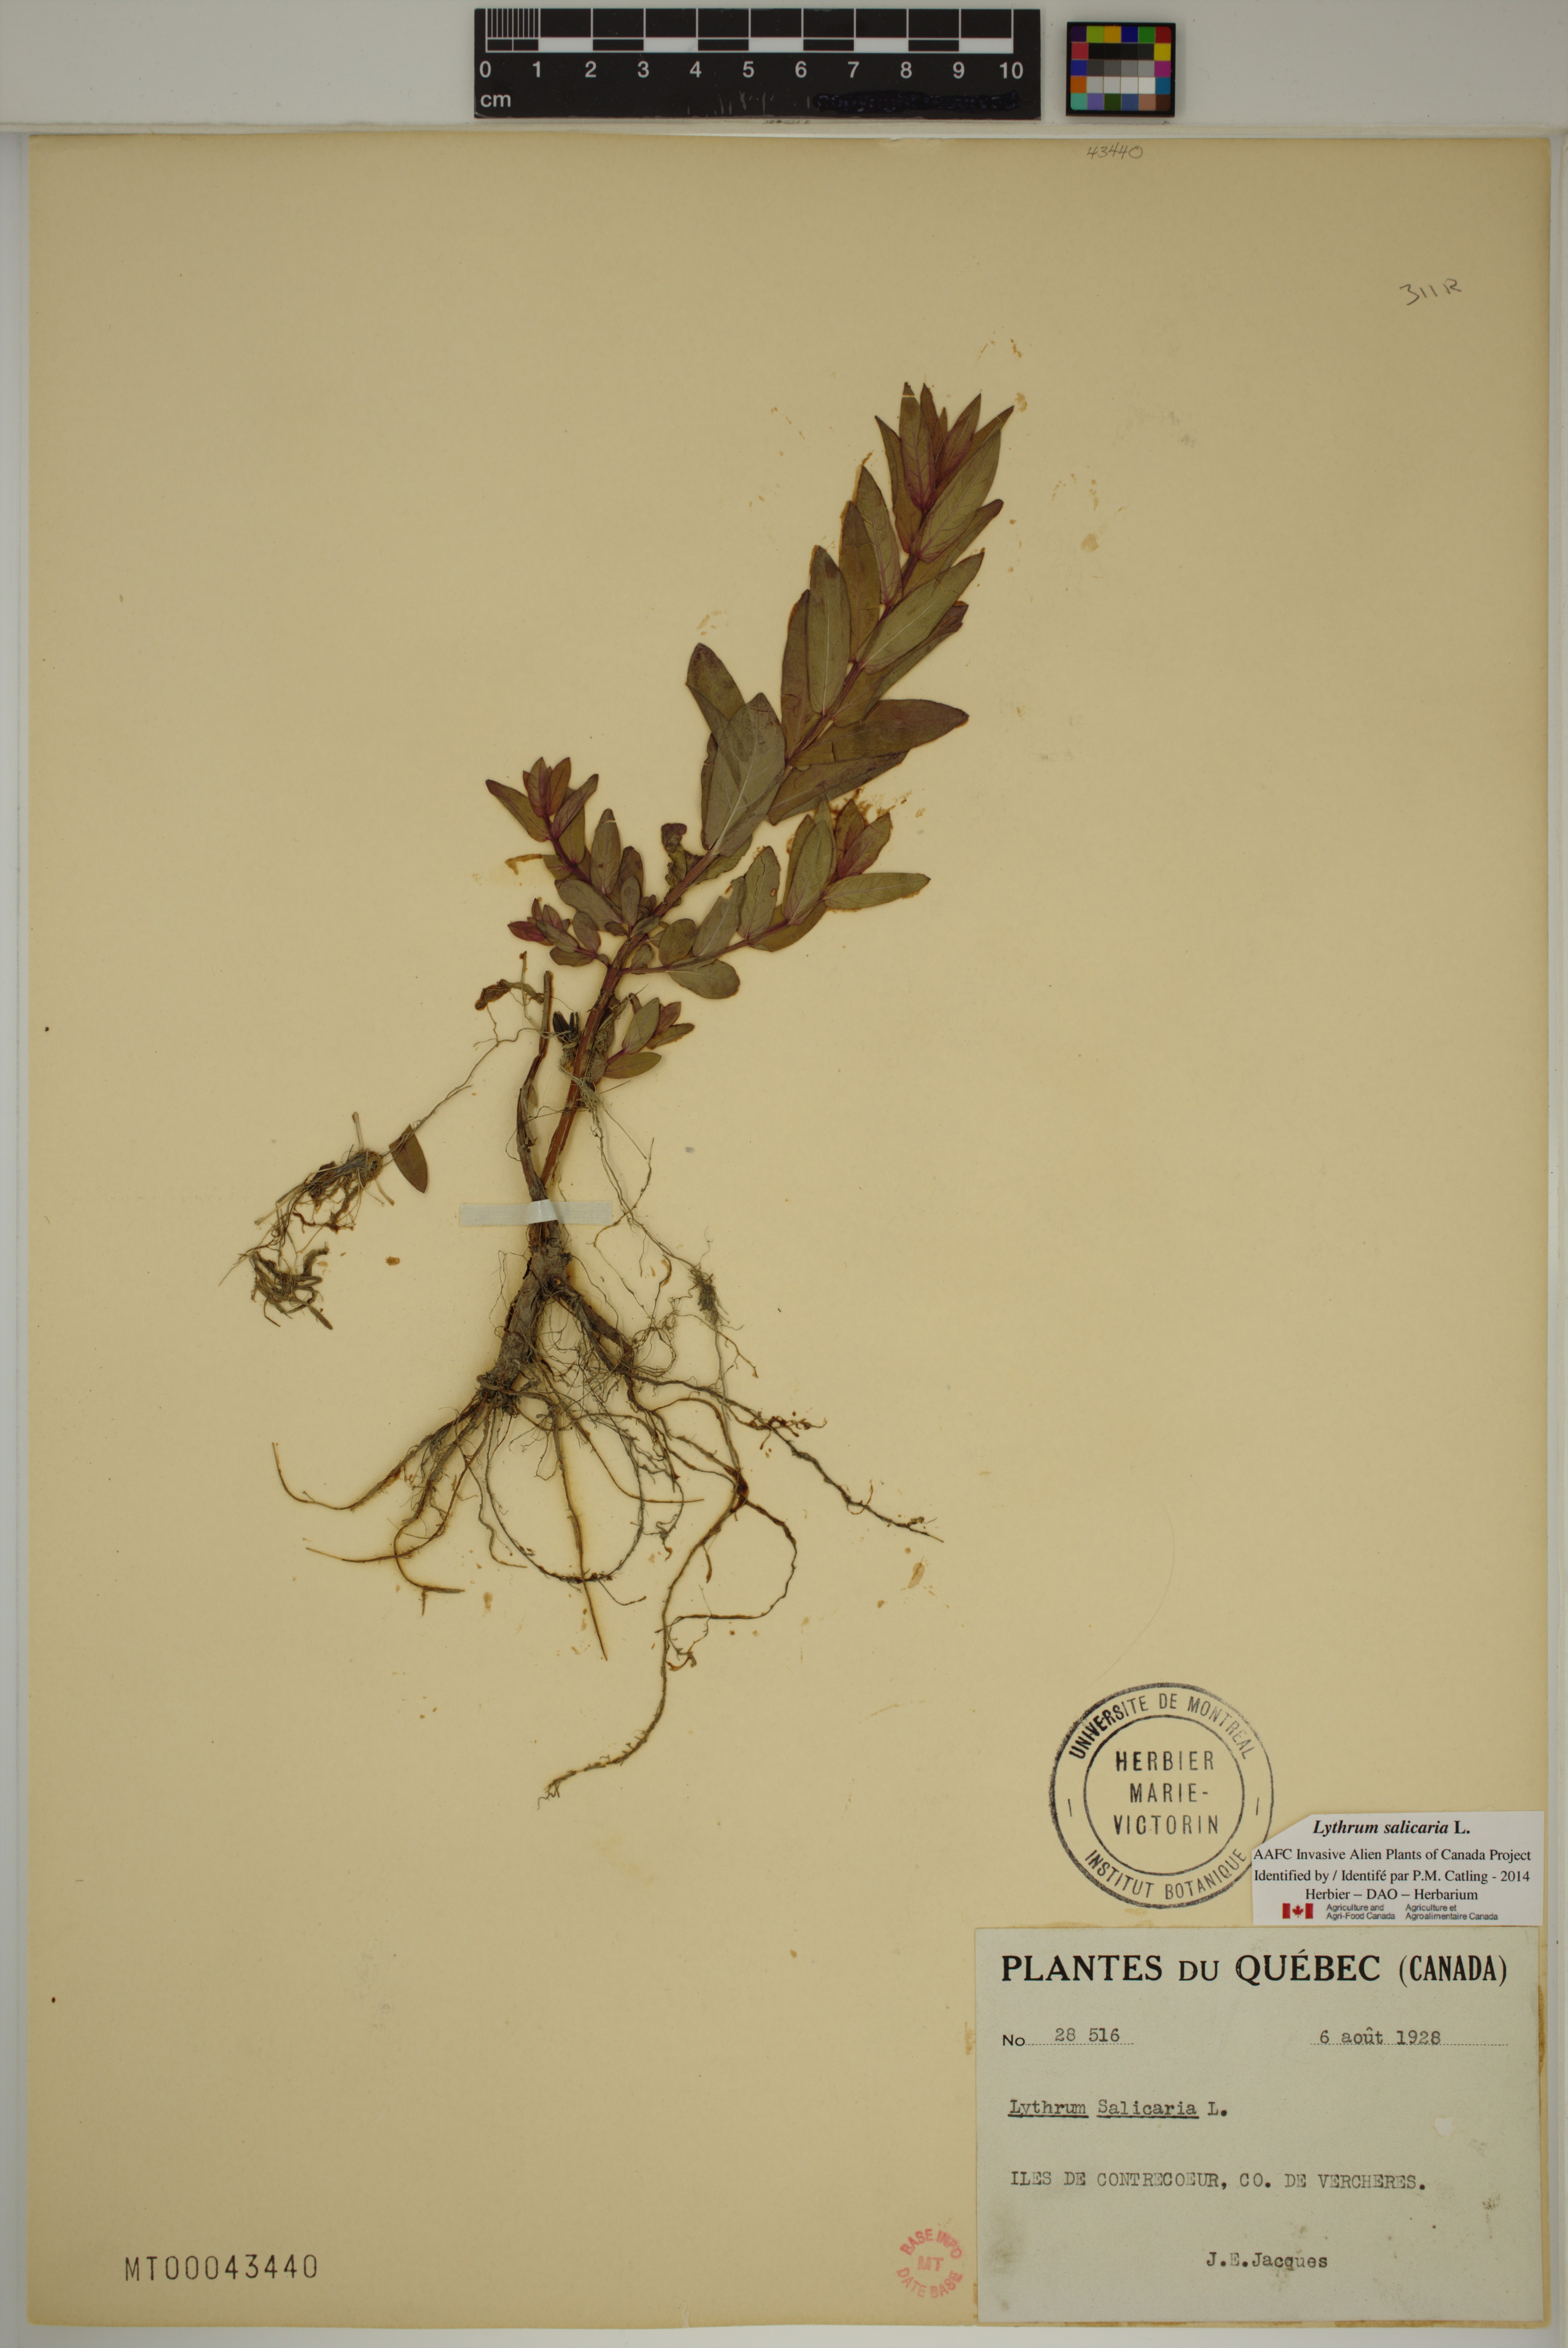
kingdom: Plantae
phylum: Tracheophyta
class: Magnoliopsida
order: Myrtales
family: Lythraceae
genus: Lythrum
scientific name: Lythrum salicaria
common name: Purple loosestrife
